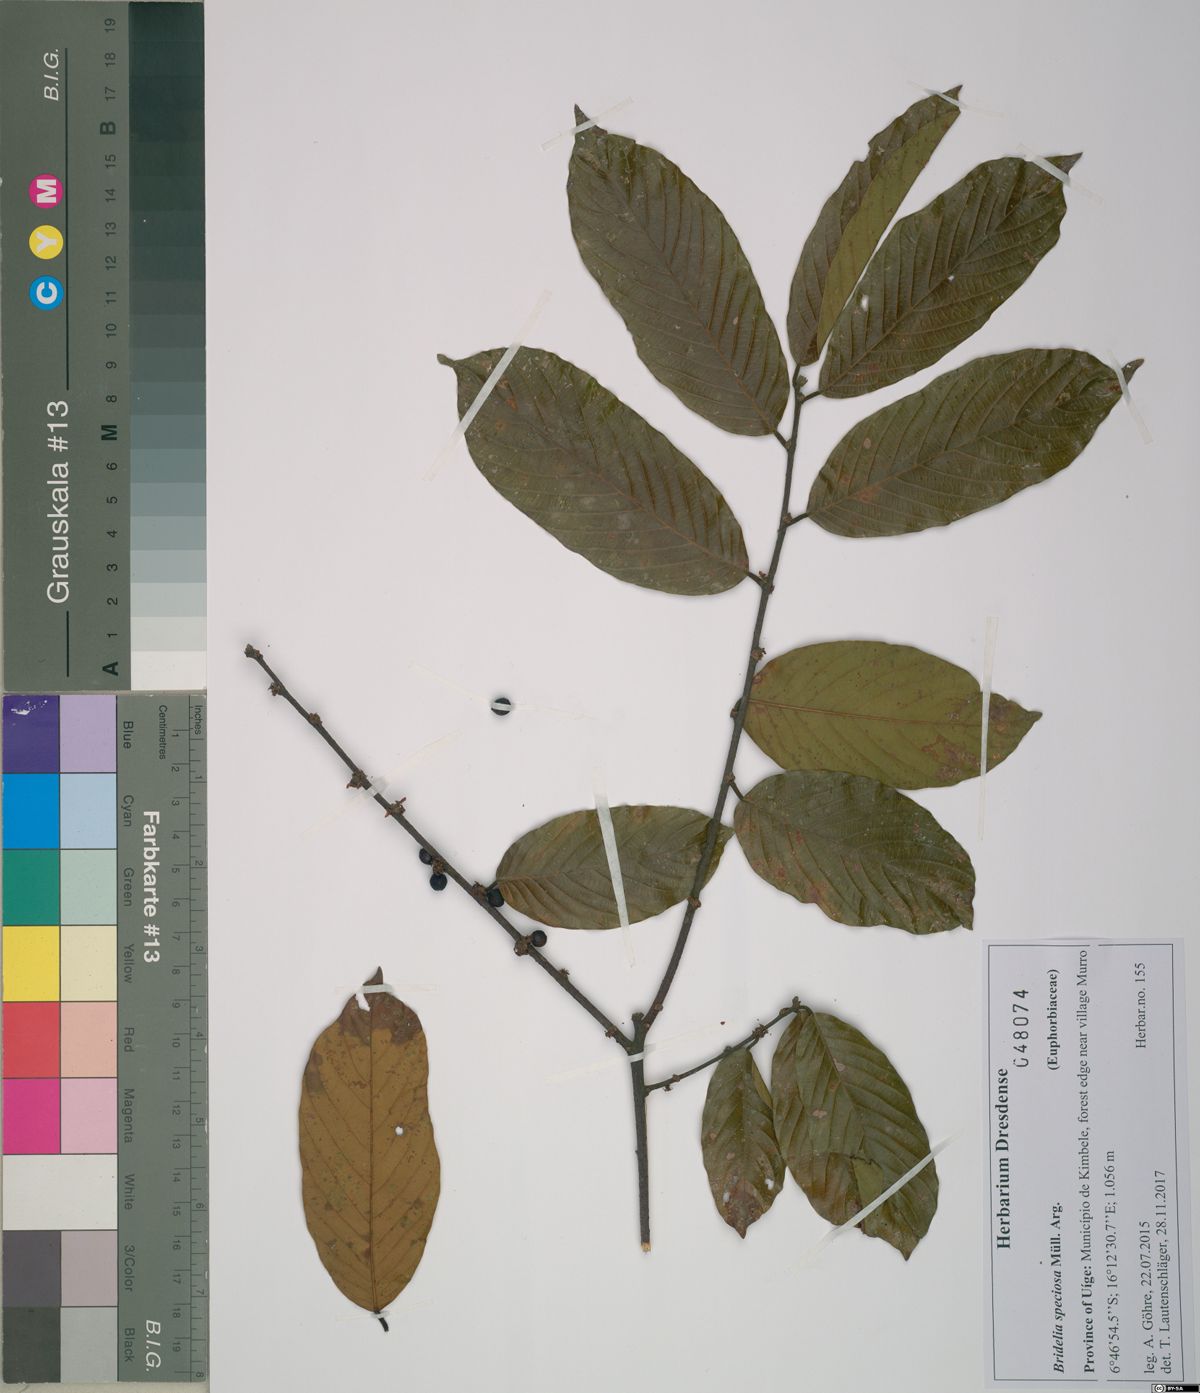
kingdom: Plantae
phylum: Tracheophyta
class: Magnoliopsida
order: Malpighiales
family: Phyllanthaceae
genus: Bridelia
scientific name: Bridelia speciosa
